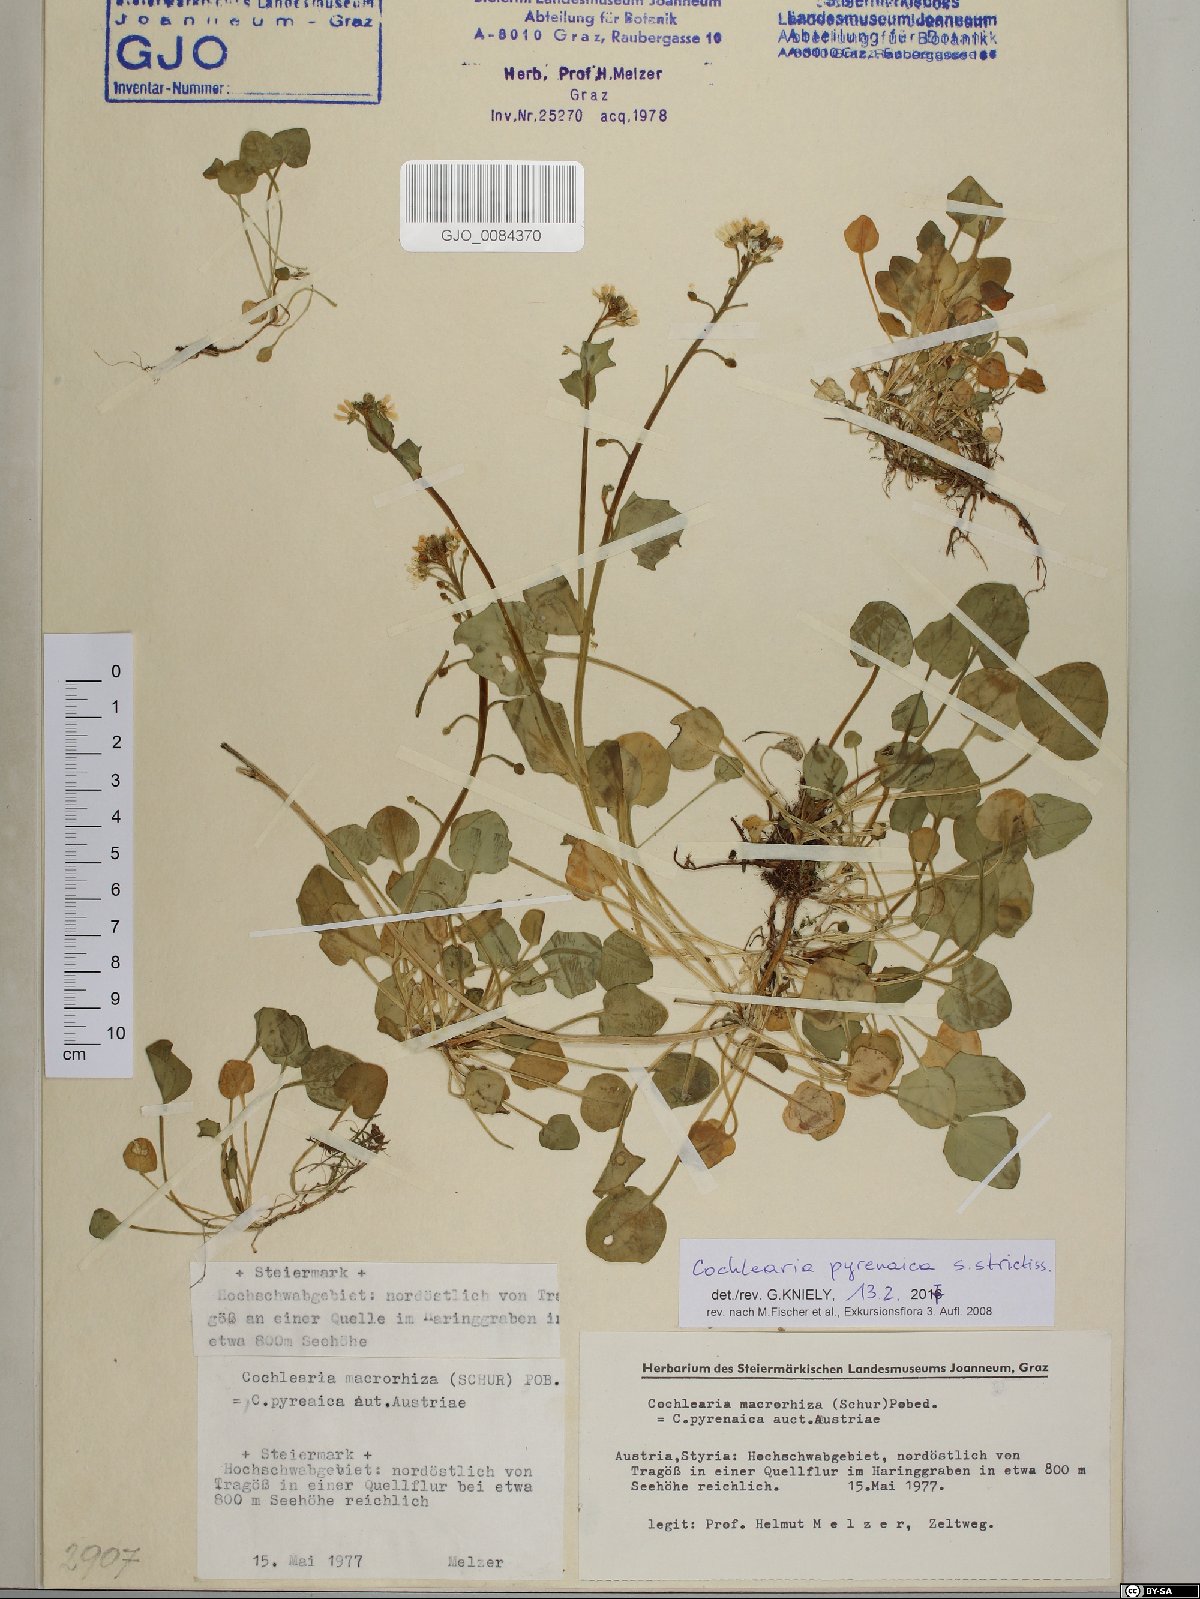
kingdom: Plantae
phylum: Tracheophyta
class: Magnoliopsida
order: Brassicales
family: Brassicaceae
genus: Cochlearia
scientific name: Cochlearia pyrenaica
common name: Upland scurvy-grass
